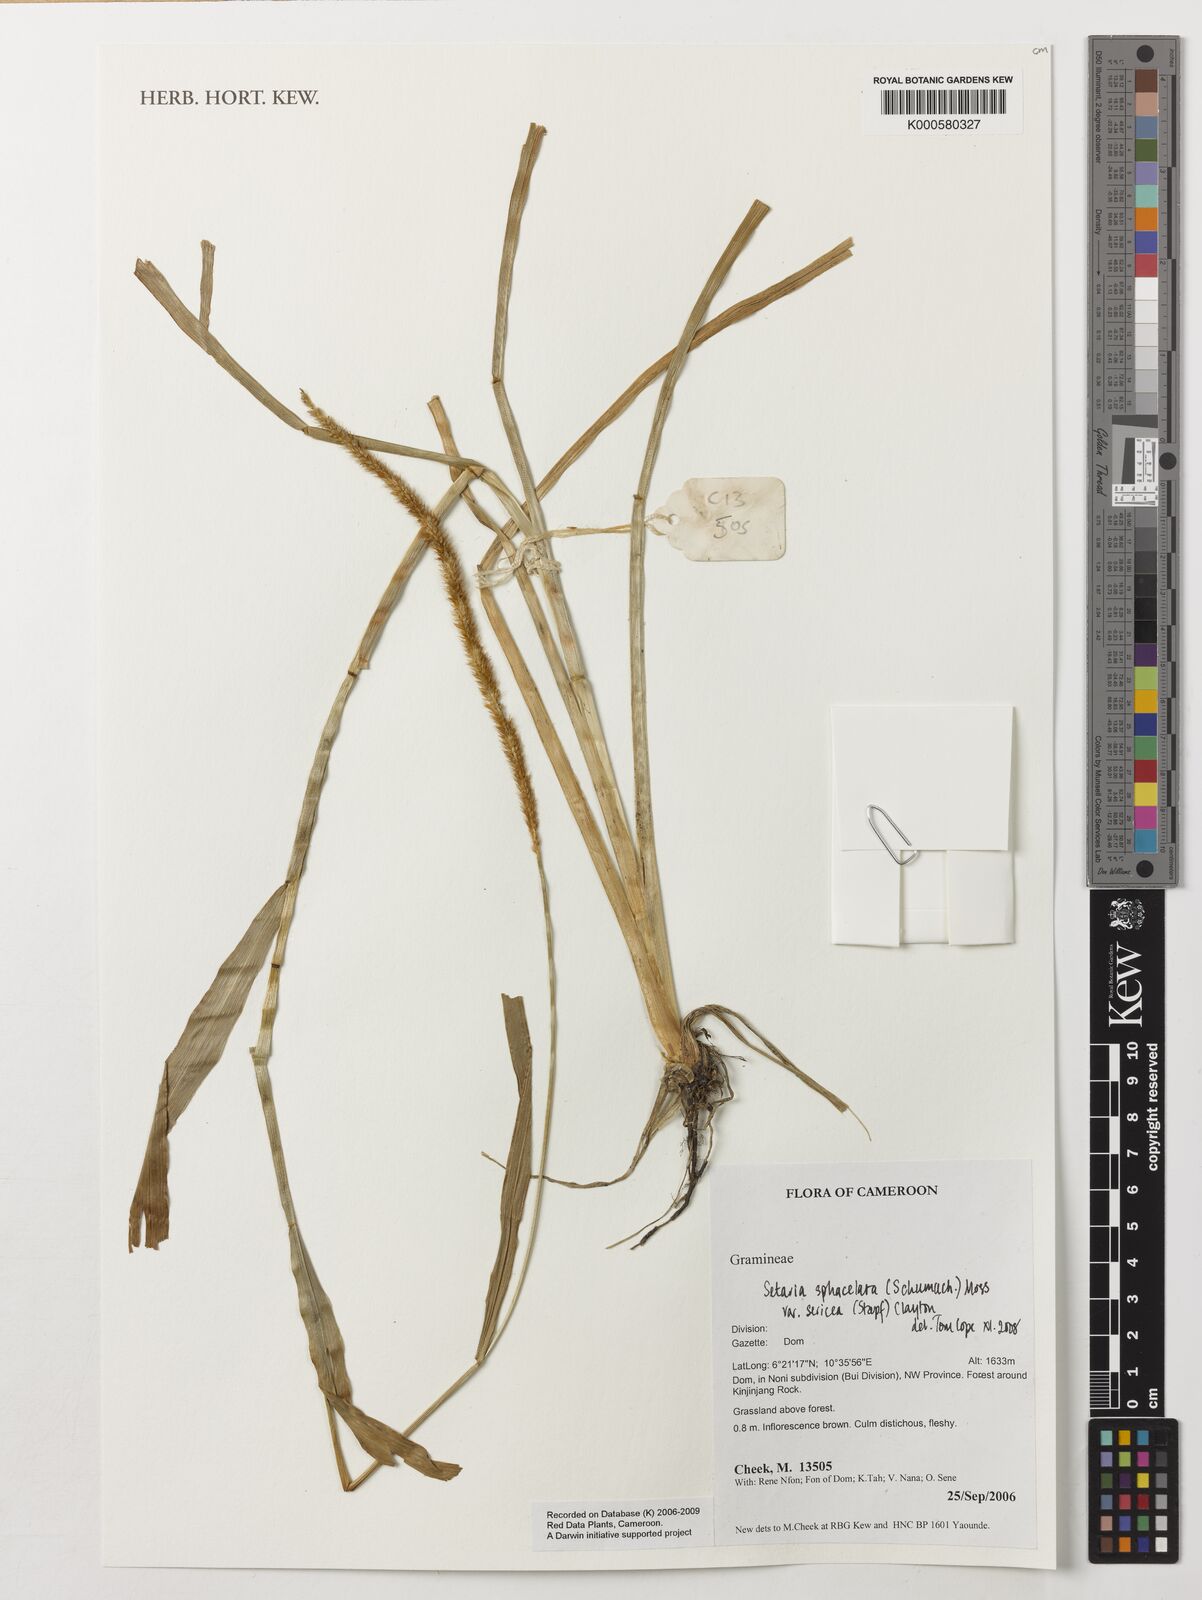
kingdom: Plantae
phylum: Tracheophyta
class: Liliopsida
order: Poales
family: Poaceae
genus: Setaria
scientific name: Setaria sphacelata
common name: African bristlegrass
